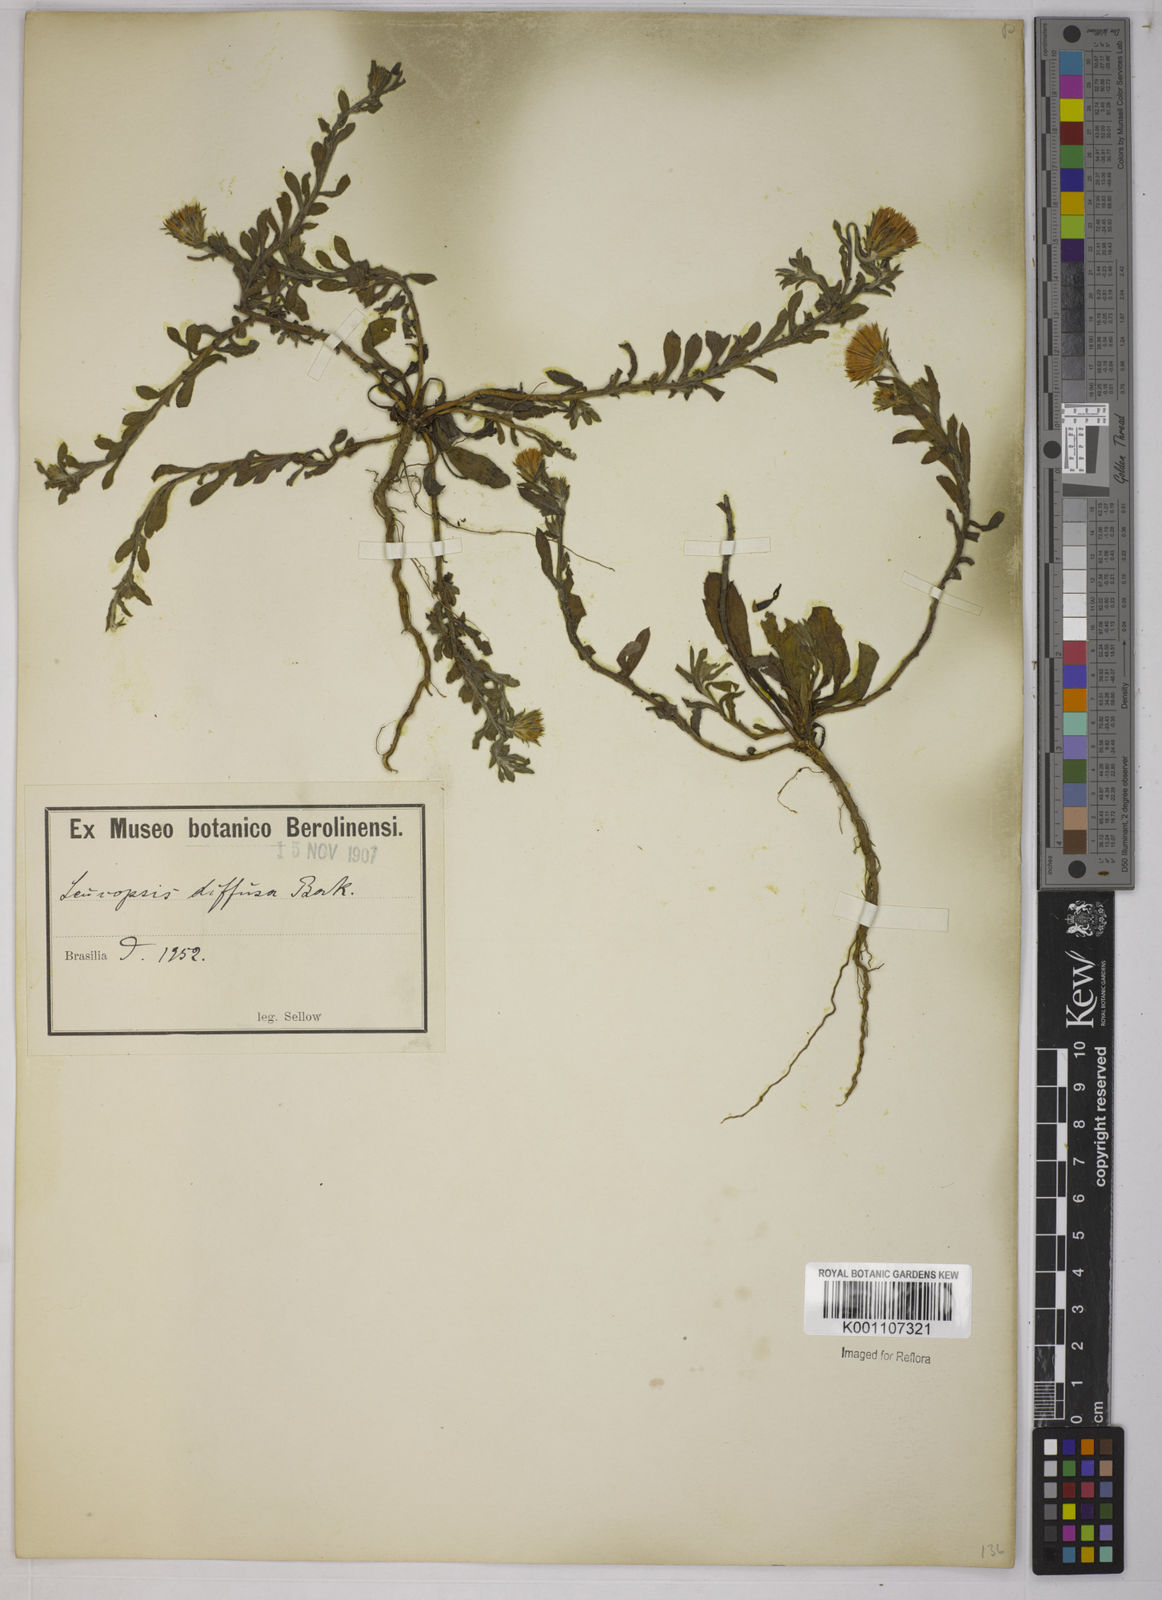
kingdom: Plantae
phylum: Tracheophyta
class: Magnoliopsida
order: Asterales
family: Asteraceae
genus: Noticastrum
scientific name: Noticastrum diffusum
